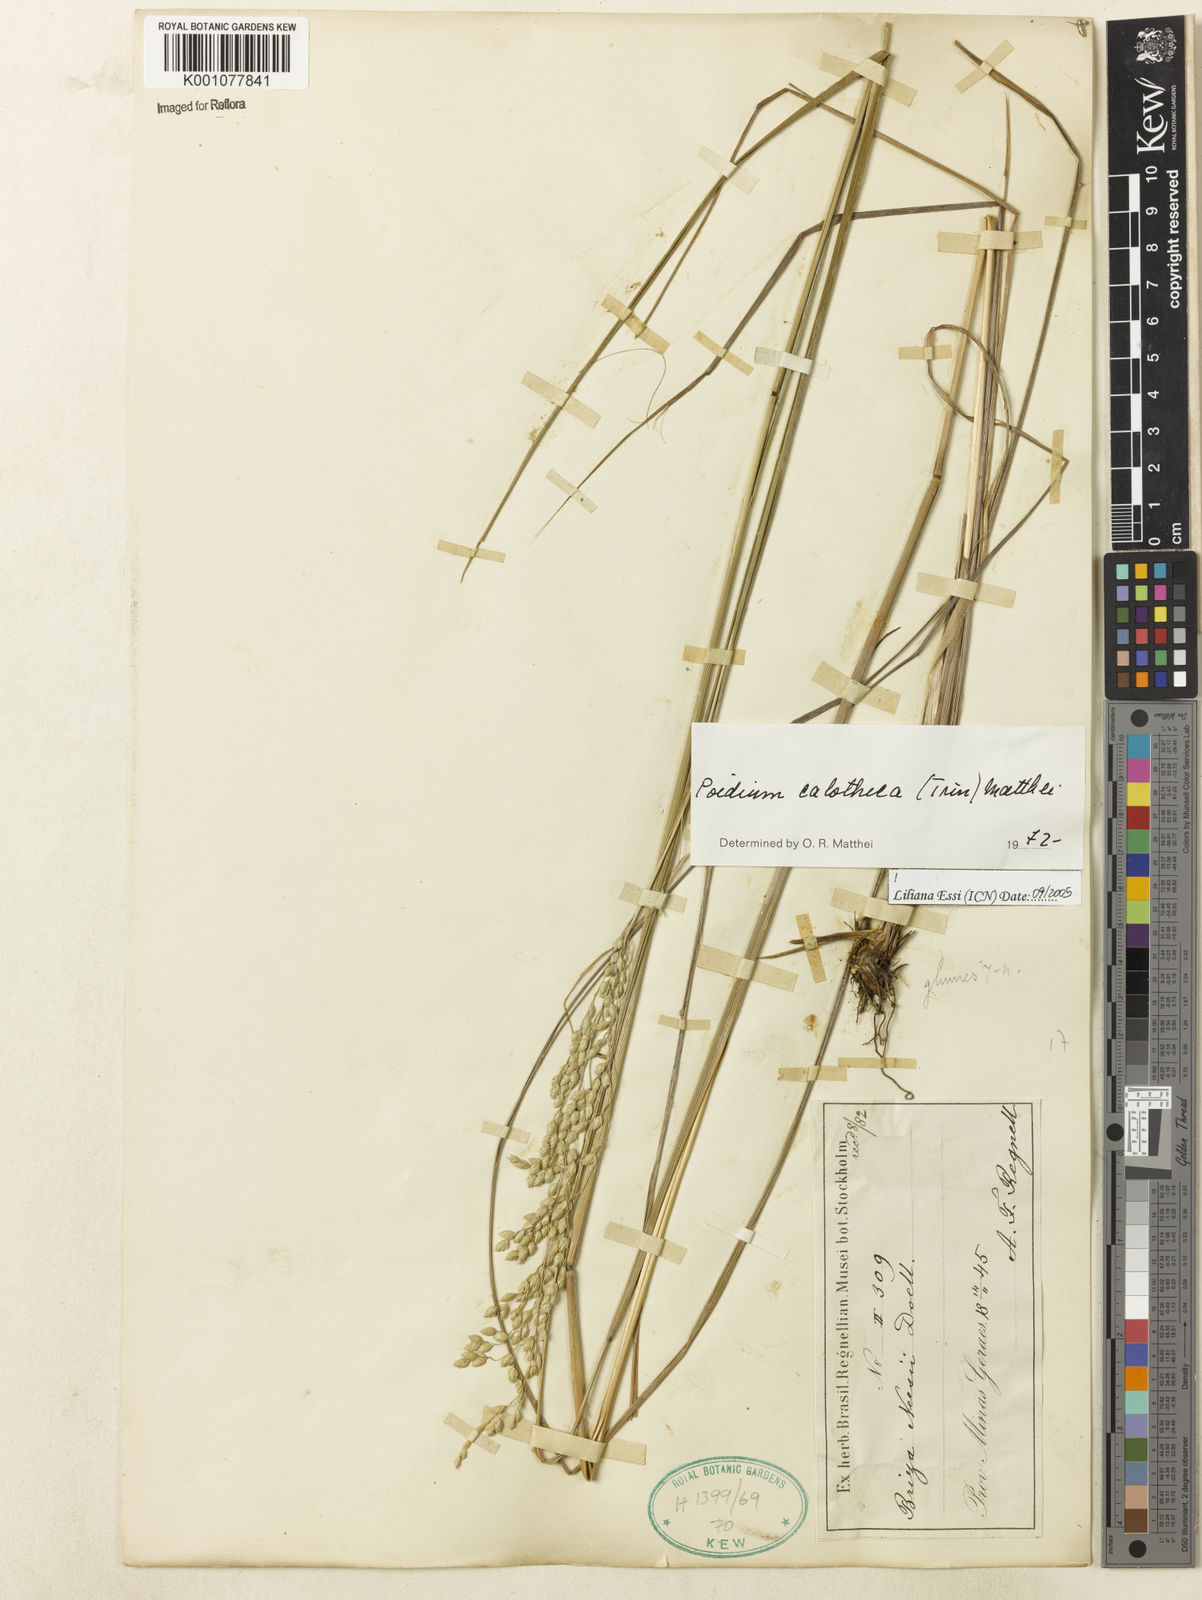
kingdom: Plantae
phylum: Tracheophyta
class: Liliopsida
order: Poales
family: Poaceae
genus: Poidium
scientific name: Poidium calotheca
